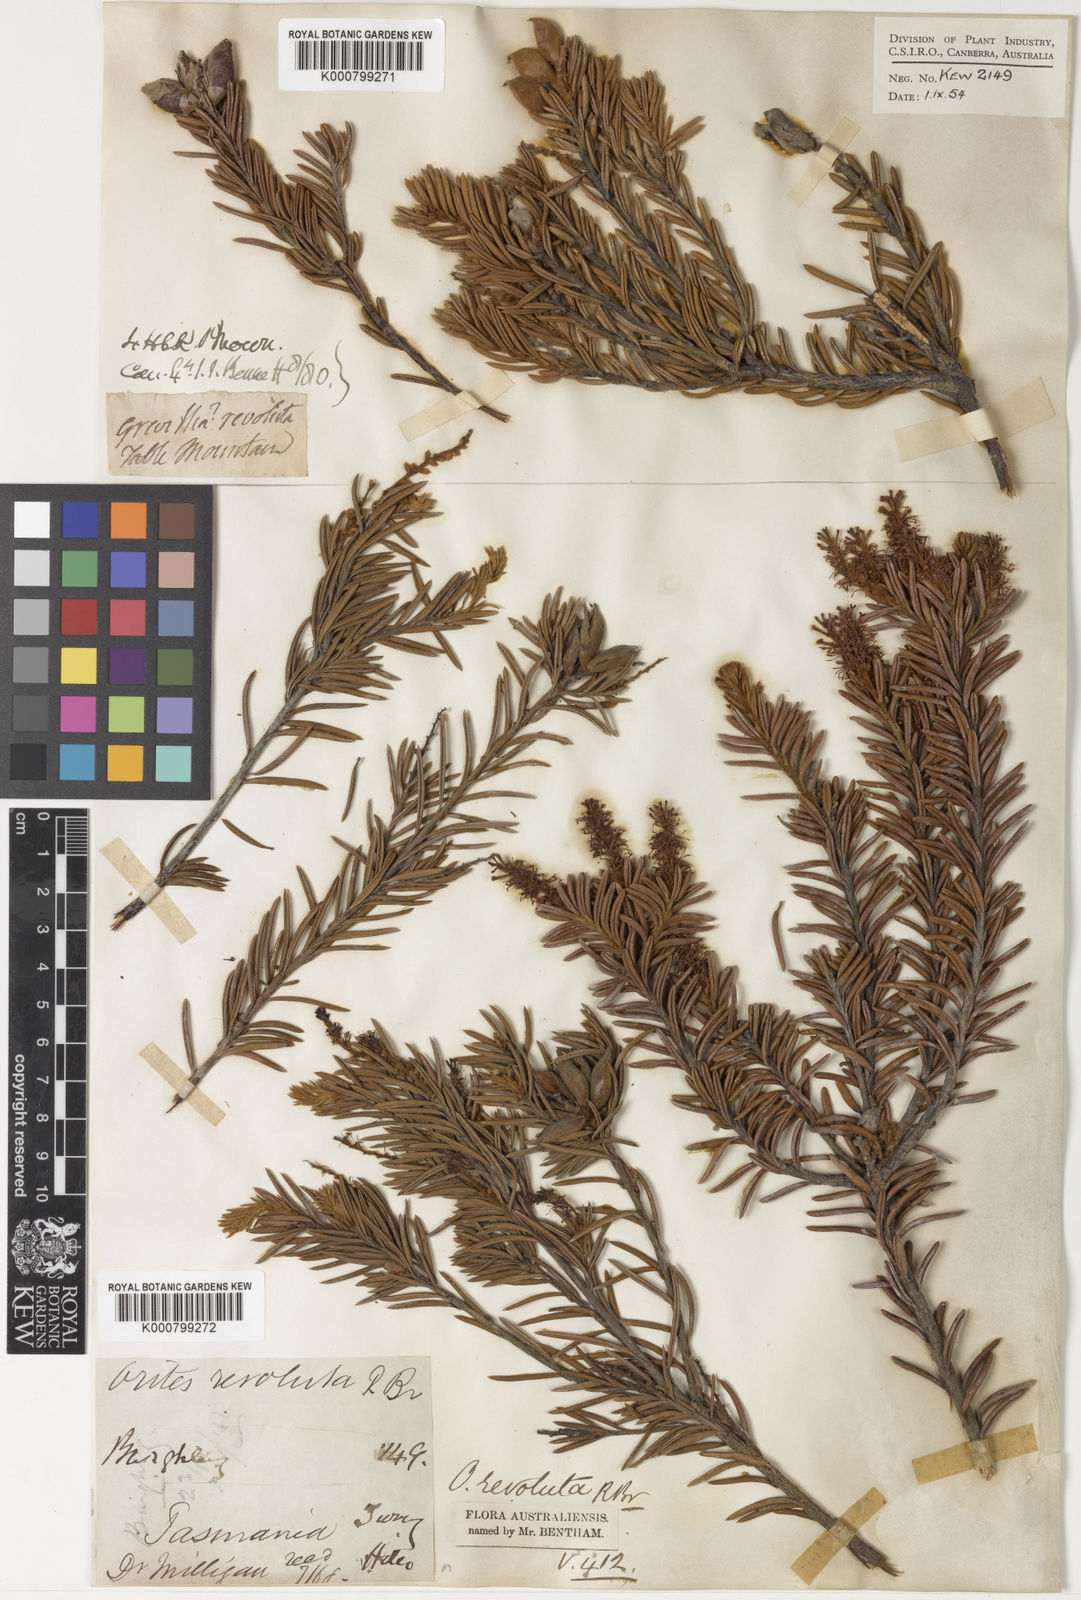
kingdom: Plantae
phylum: Tracheophyta
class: Magnoliopsida
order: Proteales
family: Proteaceae
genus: Orites
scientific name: Orites revolutus
